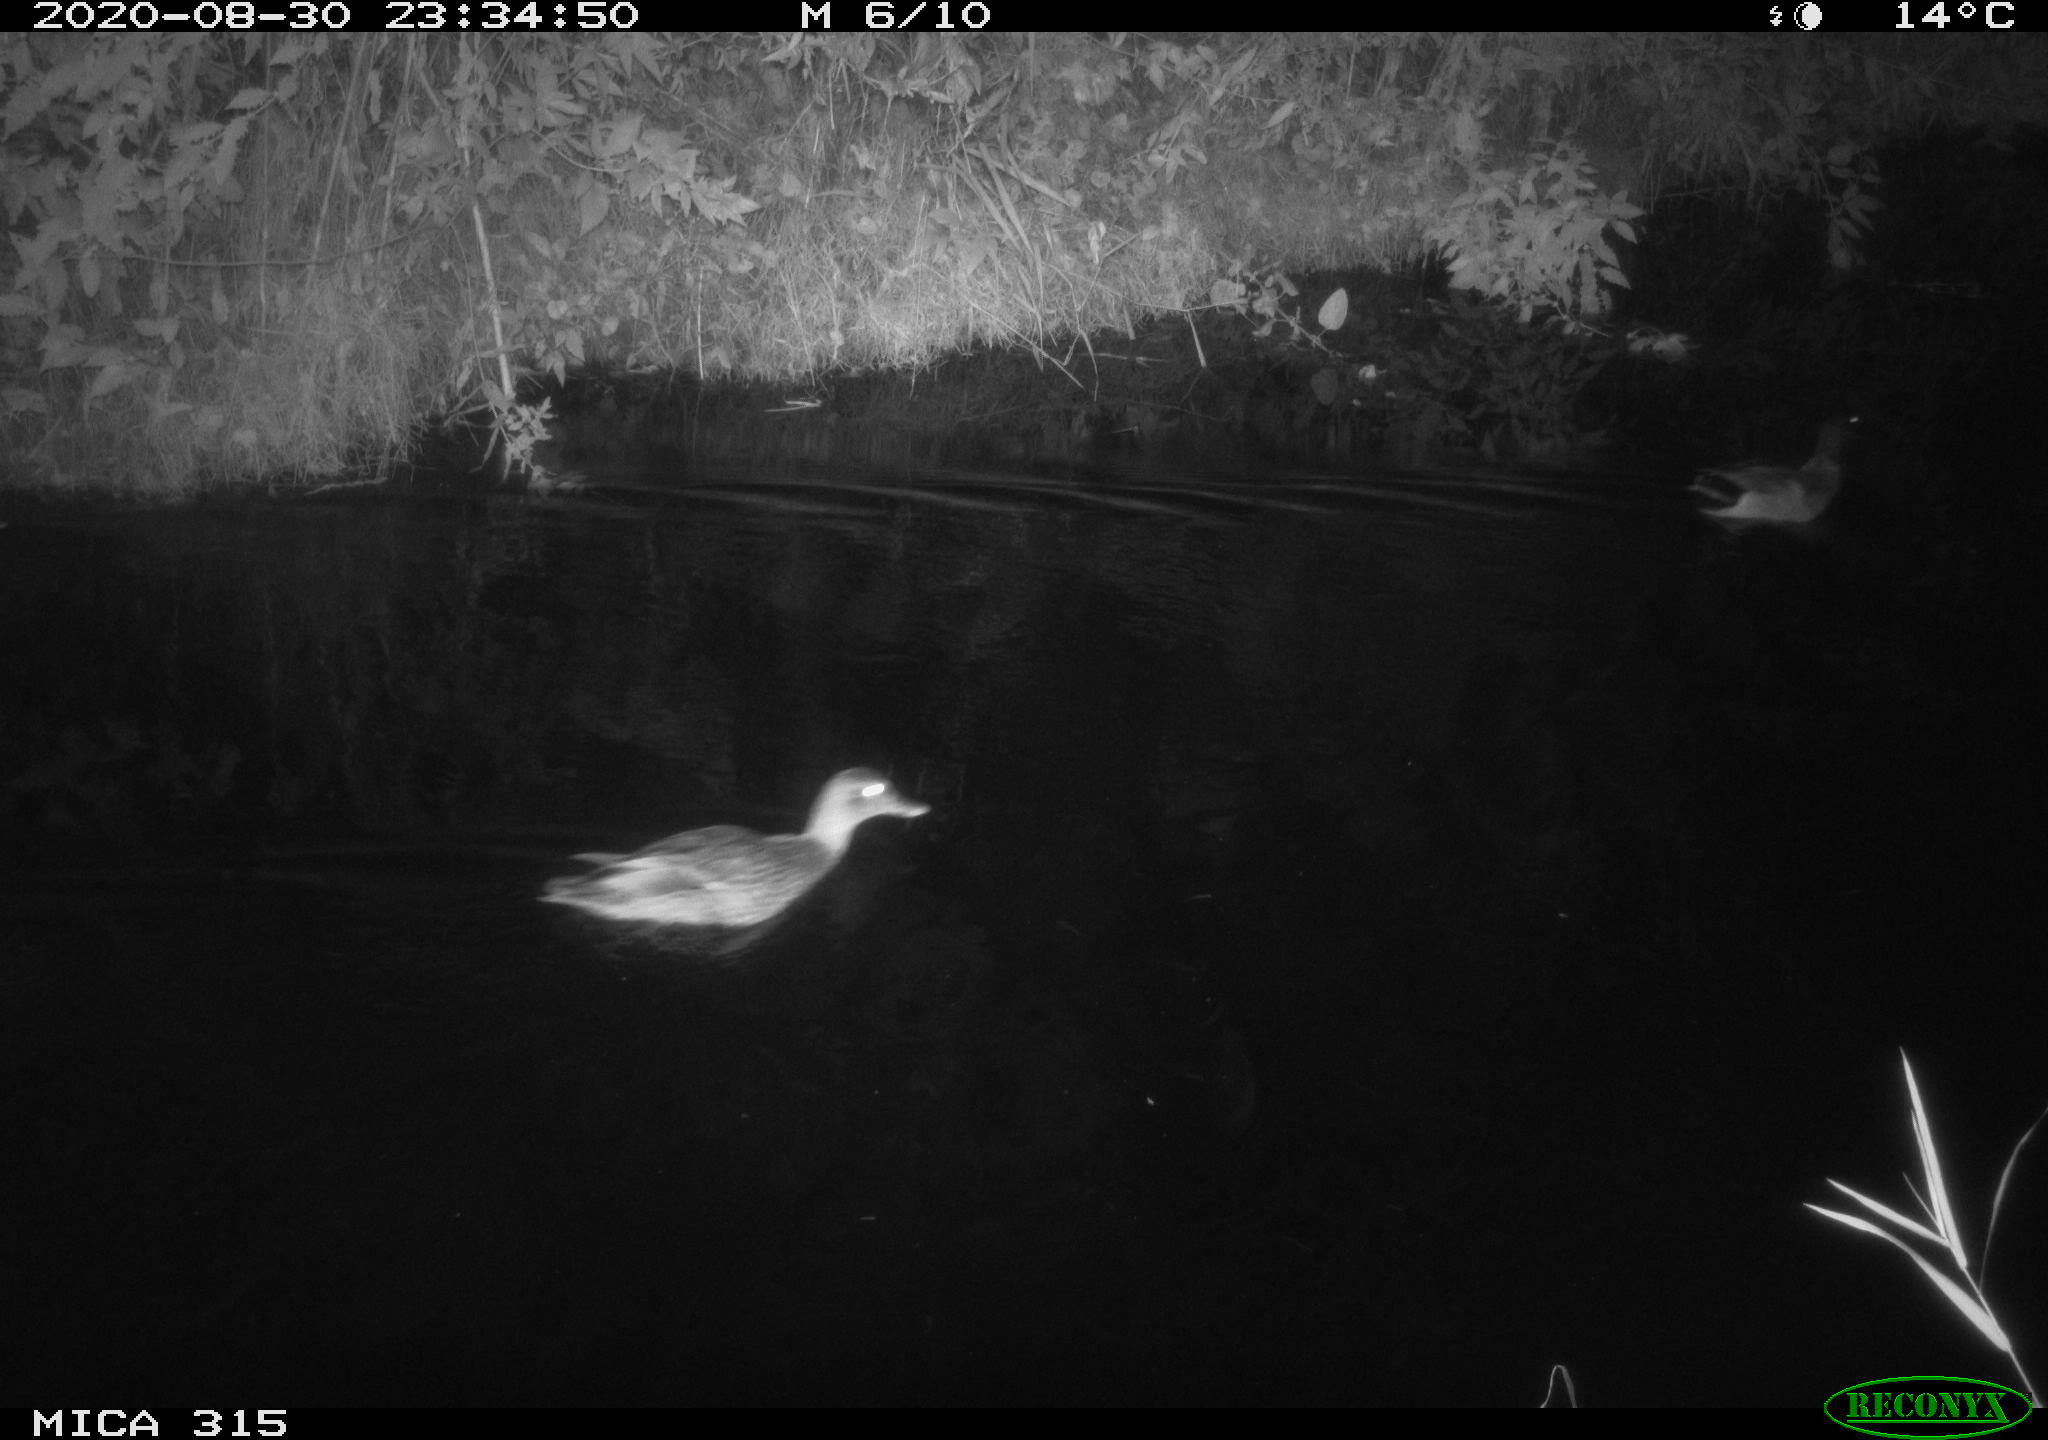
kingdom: Animalia
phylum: Chordata
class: Aves
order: Anseriformes
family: Anatidae
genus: Anas
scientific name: Anas platyrhynchos
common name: Mallard
